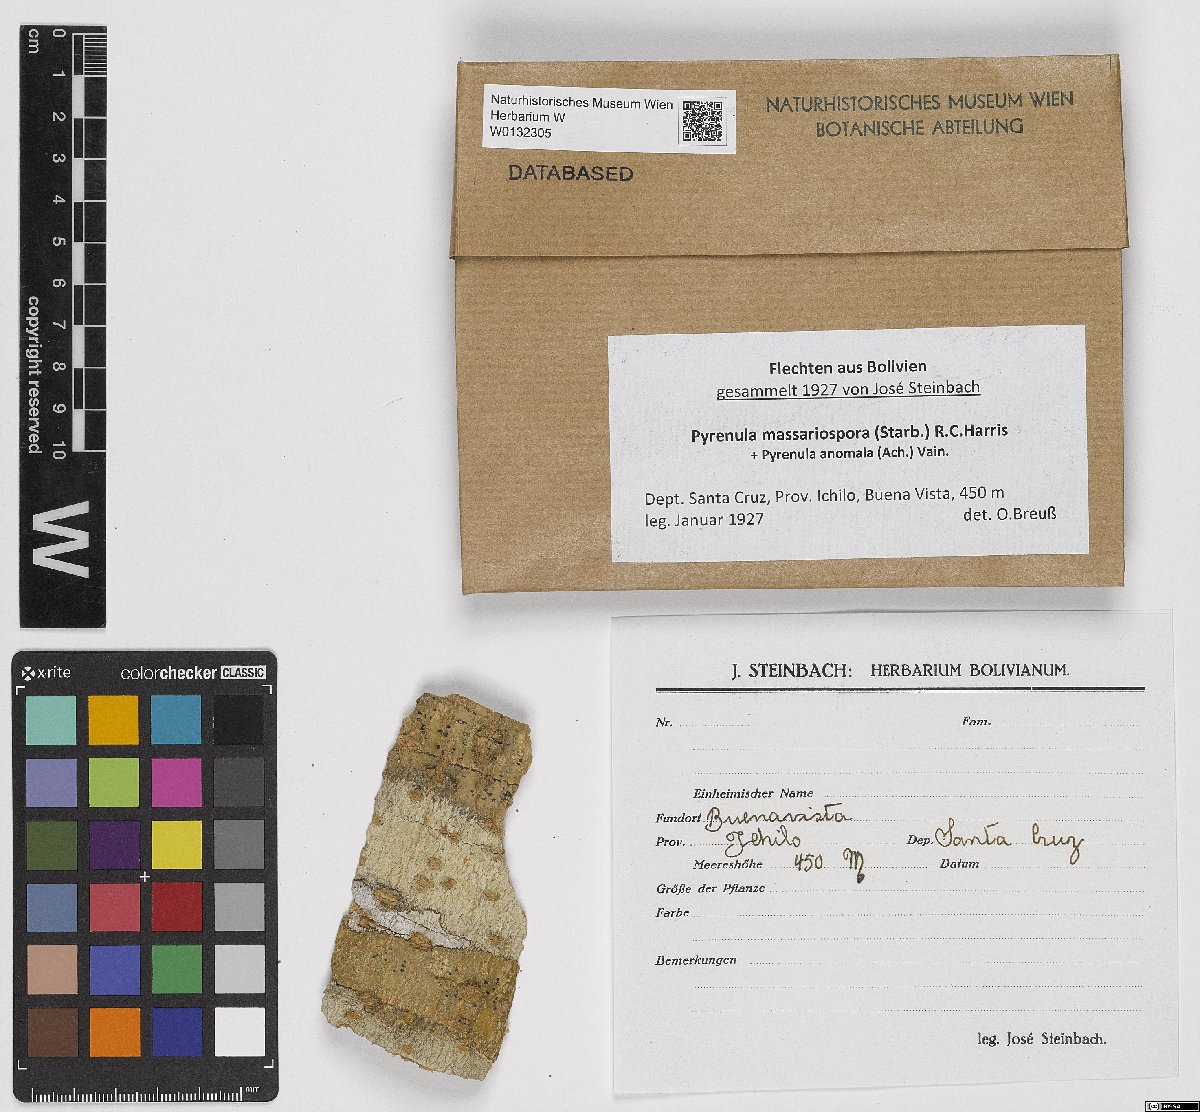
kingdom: Fungi
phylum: Ascomycota
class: Eurotiomycetes
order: Pyrenulales
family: Pyrenulaceae
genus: Pyrenula
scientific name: Pyrenula massariospora
